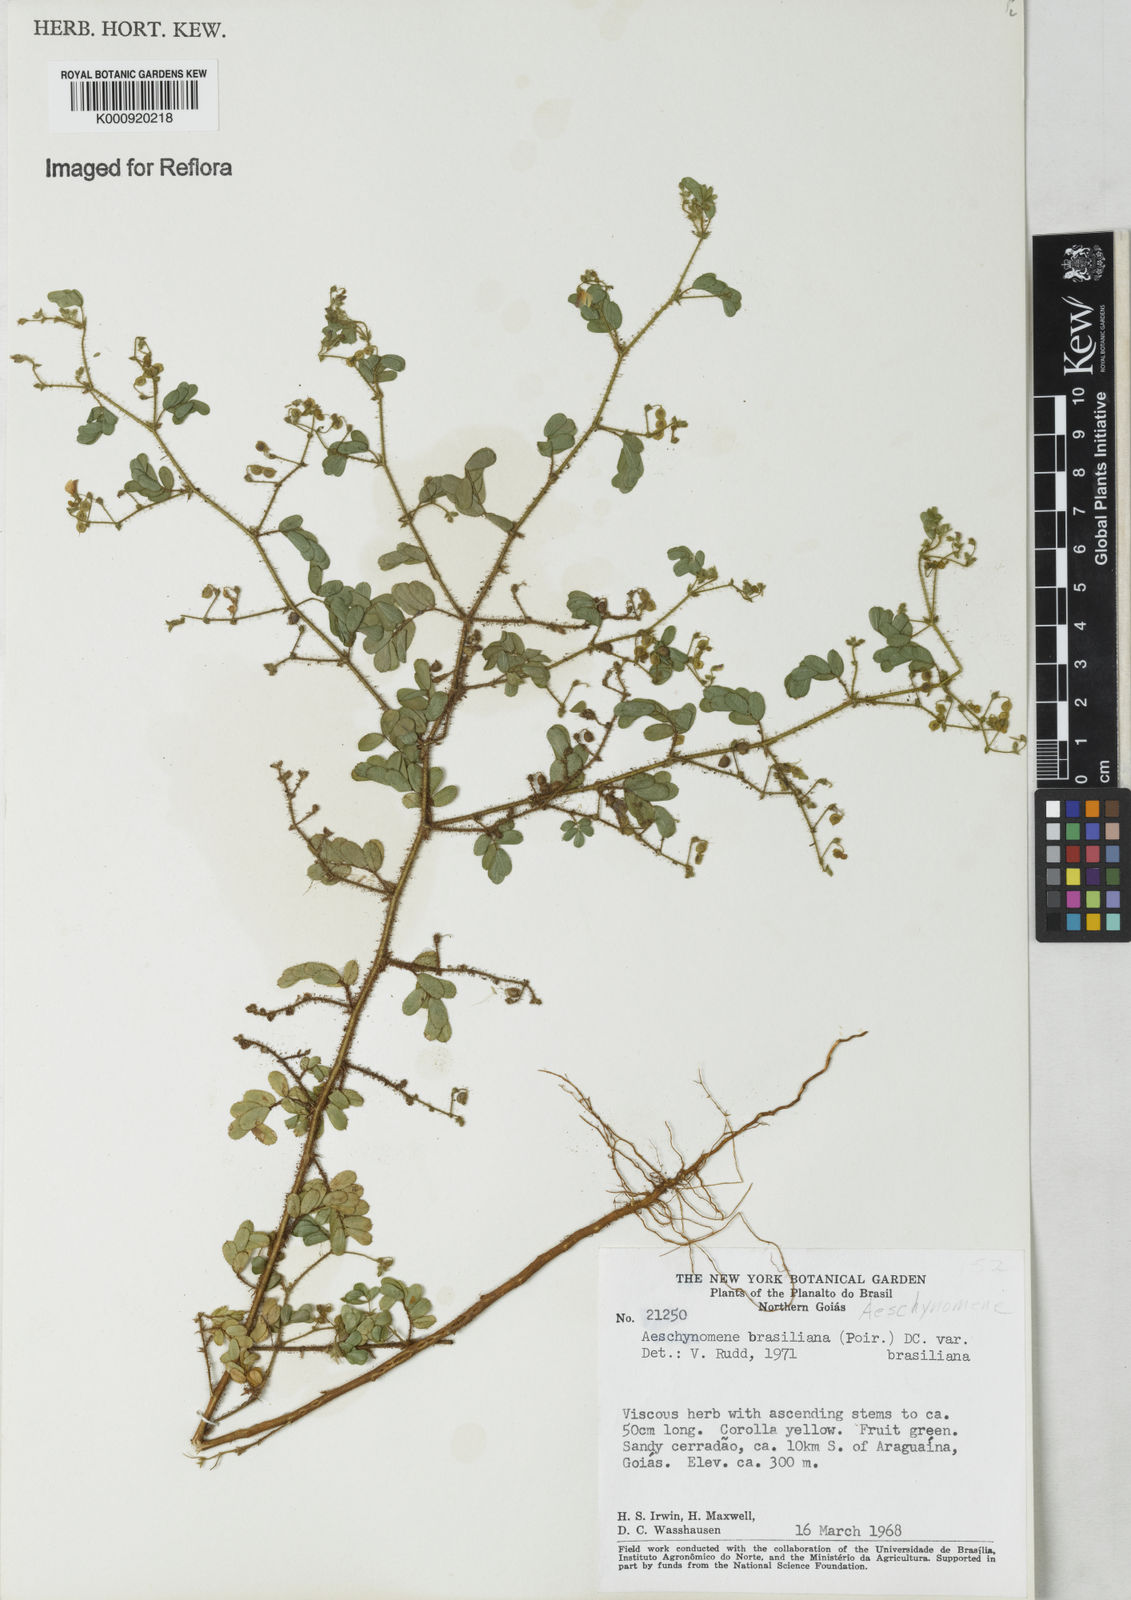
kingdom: Plantae
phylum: Tracheophyta
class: Magnoliopsida
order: Fabales
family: Fabaceae
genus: Ctenodon
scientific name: Ctenodon brasilianus
